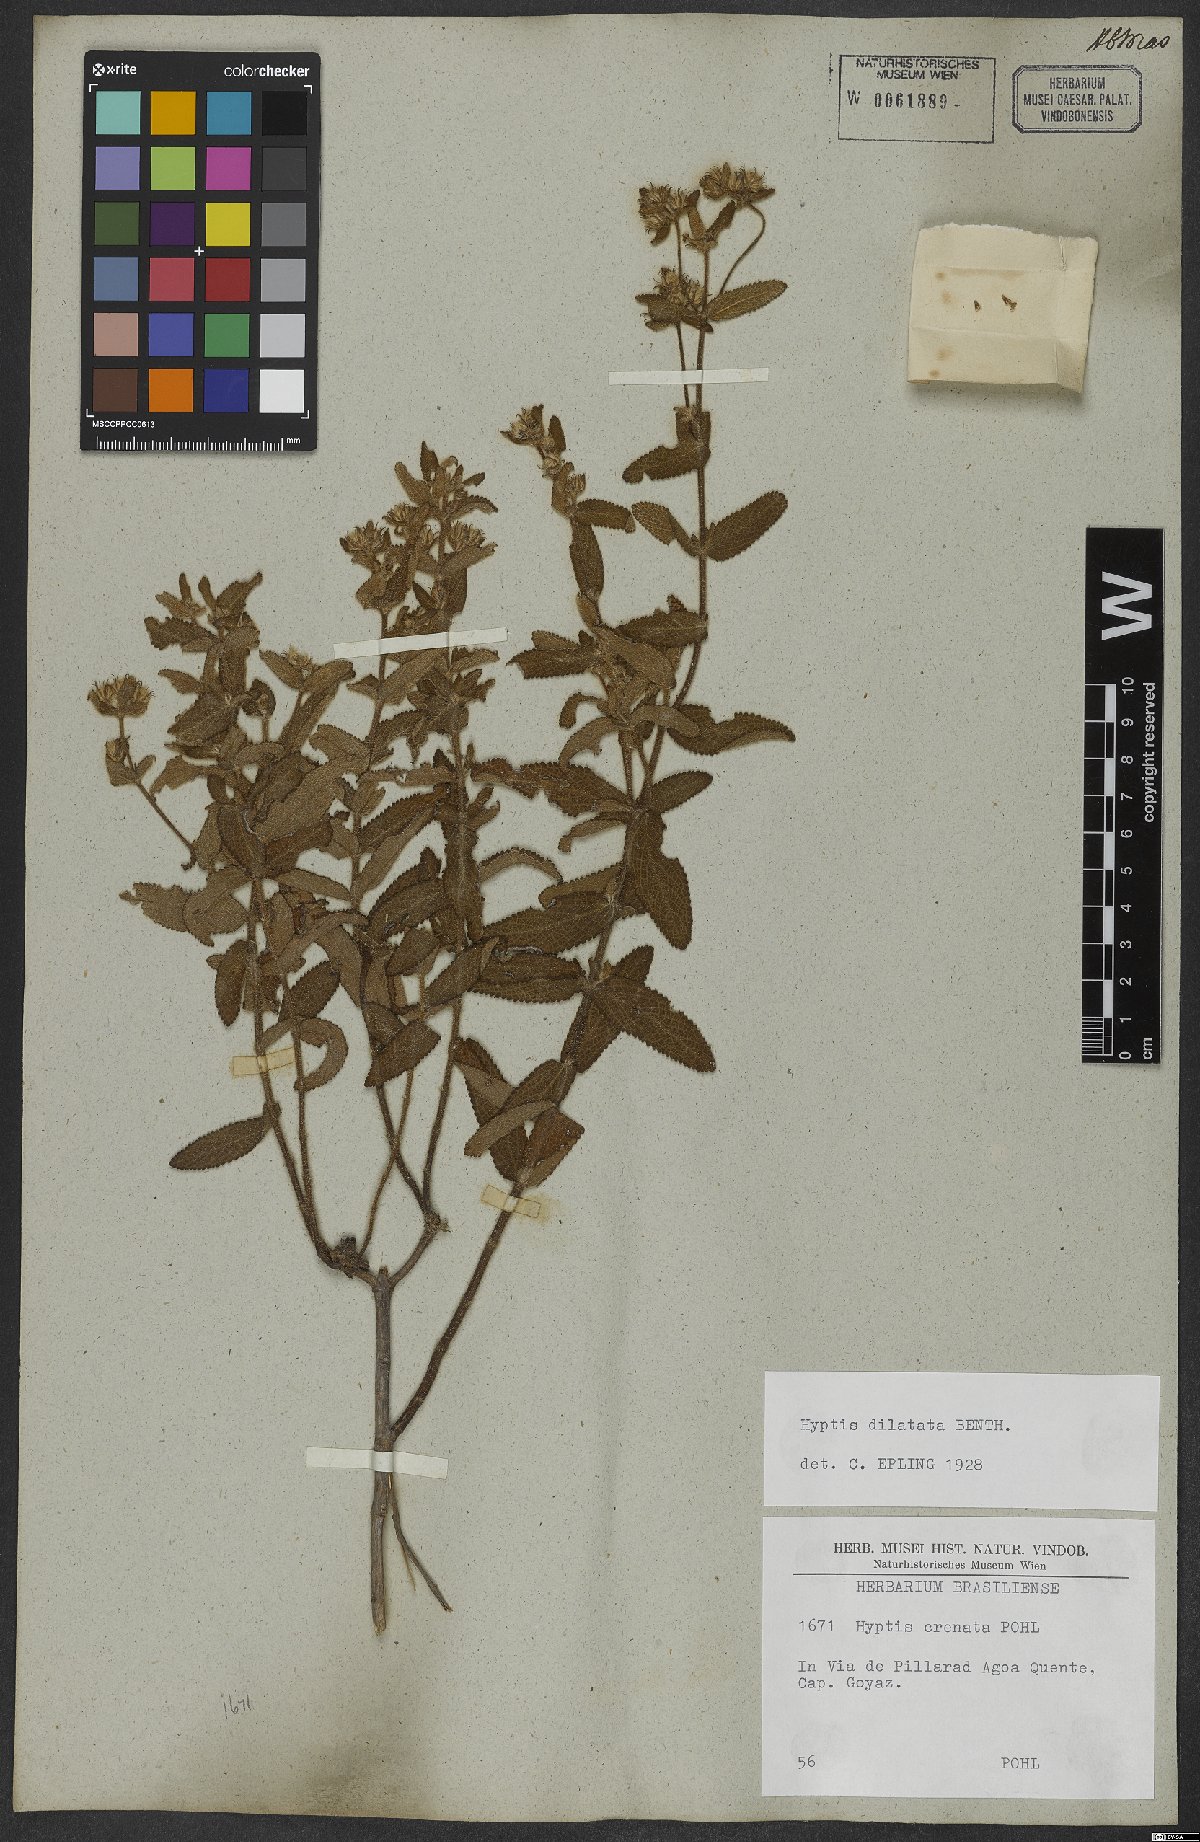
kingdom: Plantae
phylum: Tracheophyta
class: Magnoliopsida
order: Lamiales
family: Lamiaceae
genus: Hyptis
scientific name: Hyptis crenata
